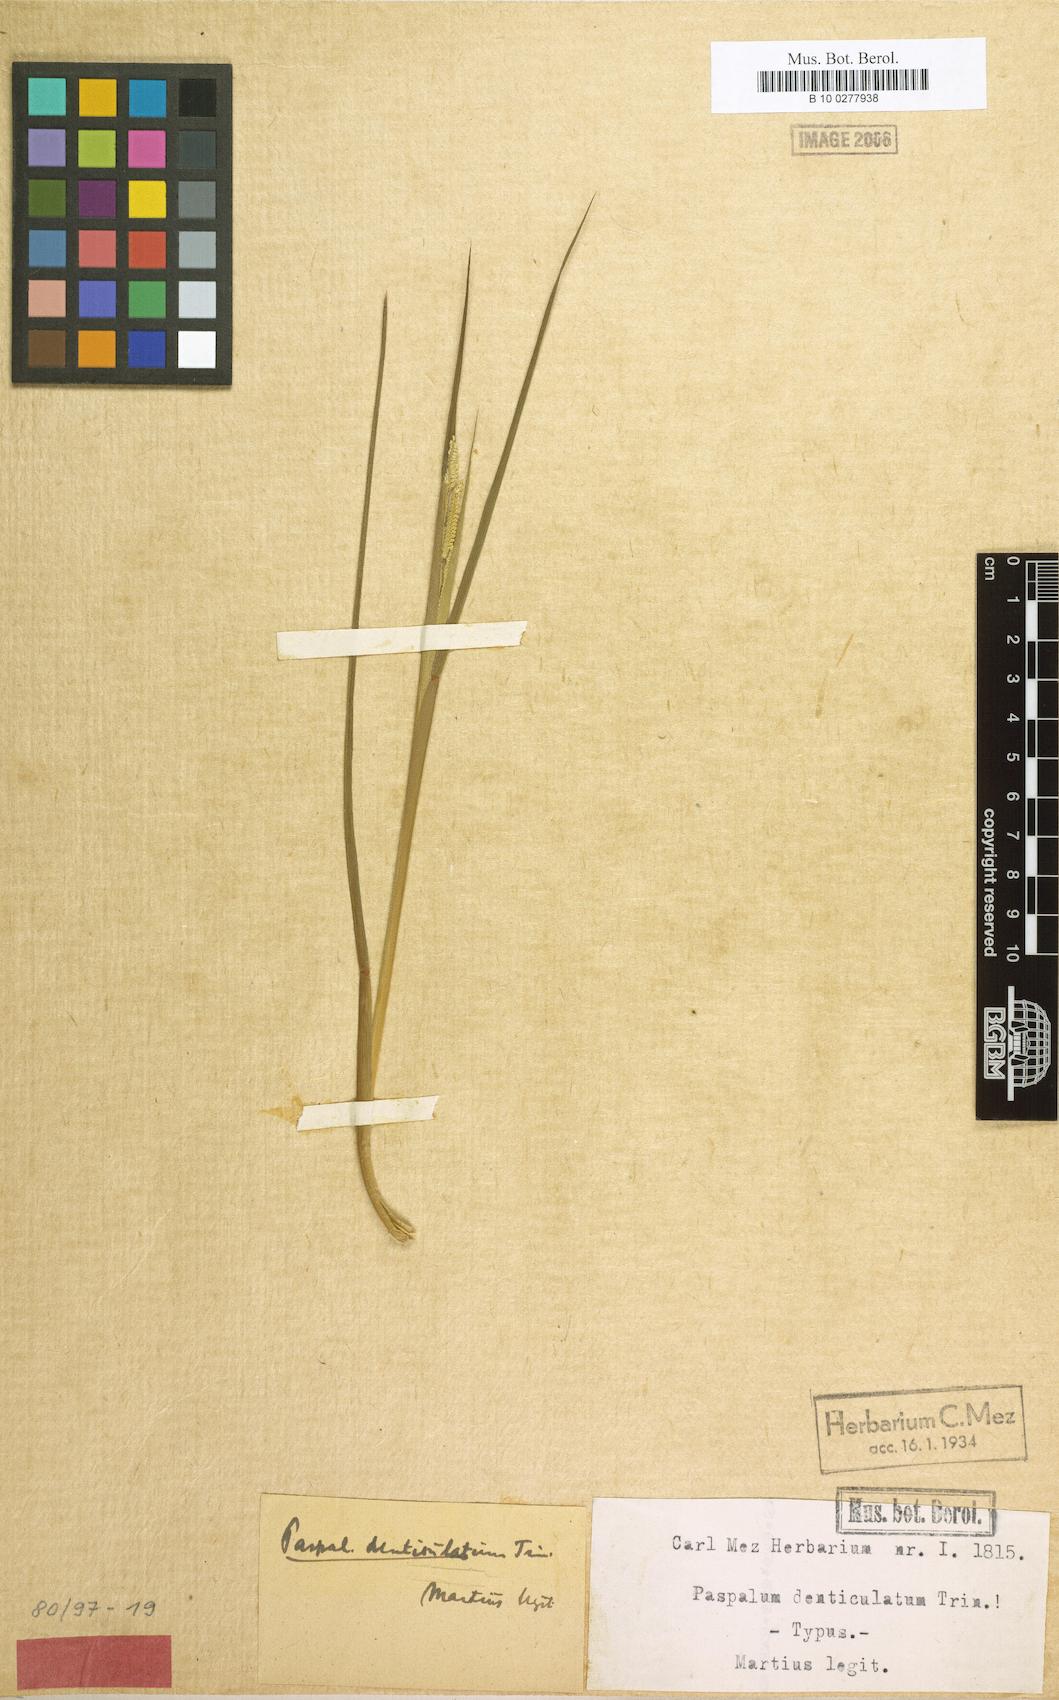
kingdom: Plantae
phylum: Tracheophyta
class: Liliopsida
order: Poales
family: Poaceae
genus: Paspalum
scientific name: Paspalum denticulatum
